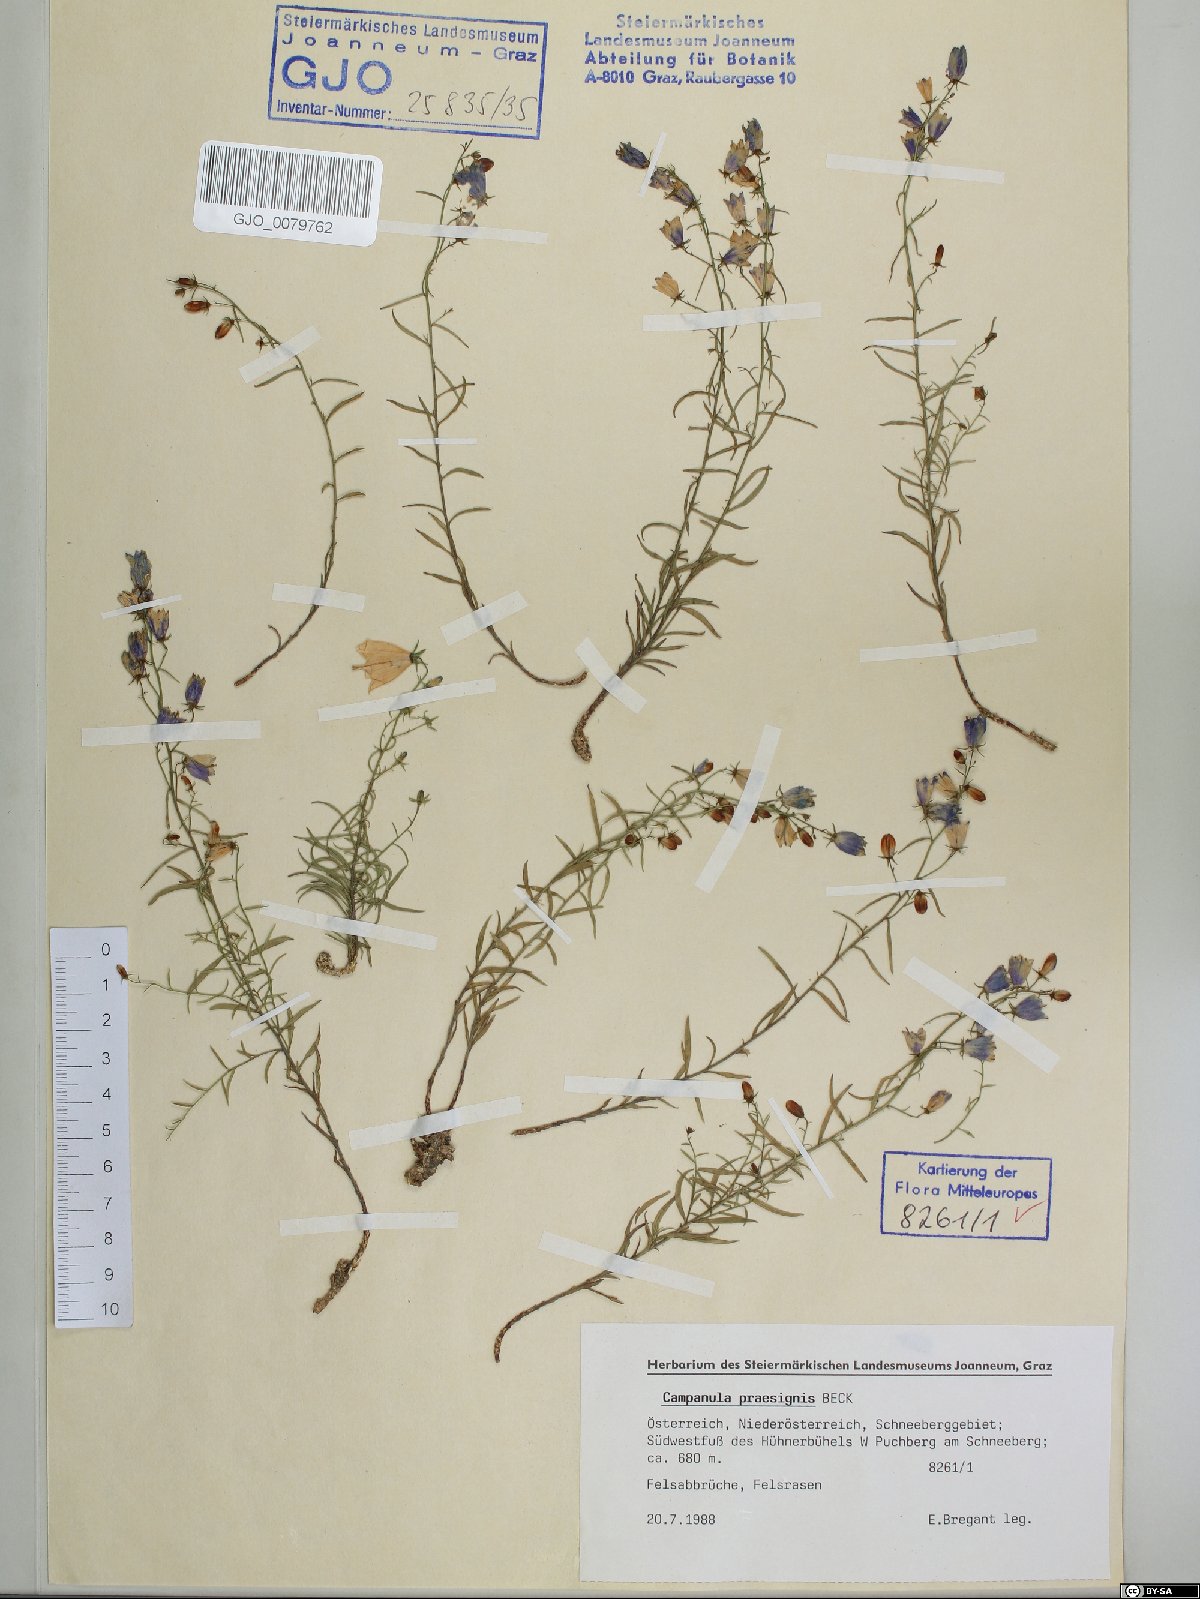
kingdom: Plantae
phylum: Tracheophyta
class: Magnoliopsida
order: Asterales
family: Campanulaceae
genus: Campanula
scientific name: Campanula praesignis
